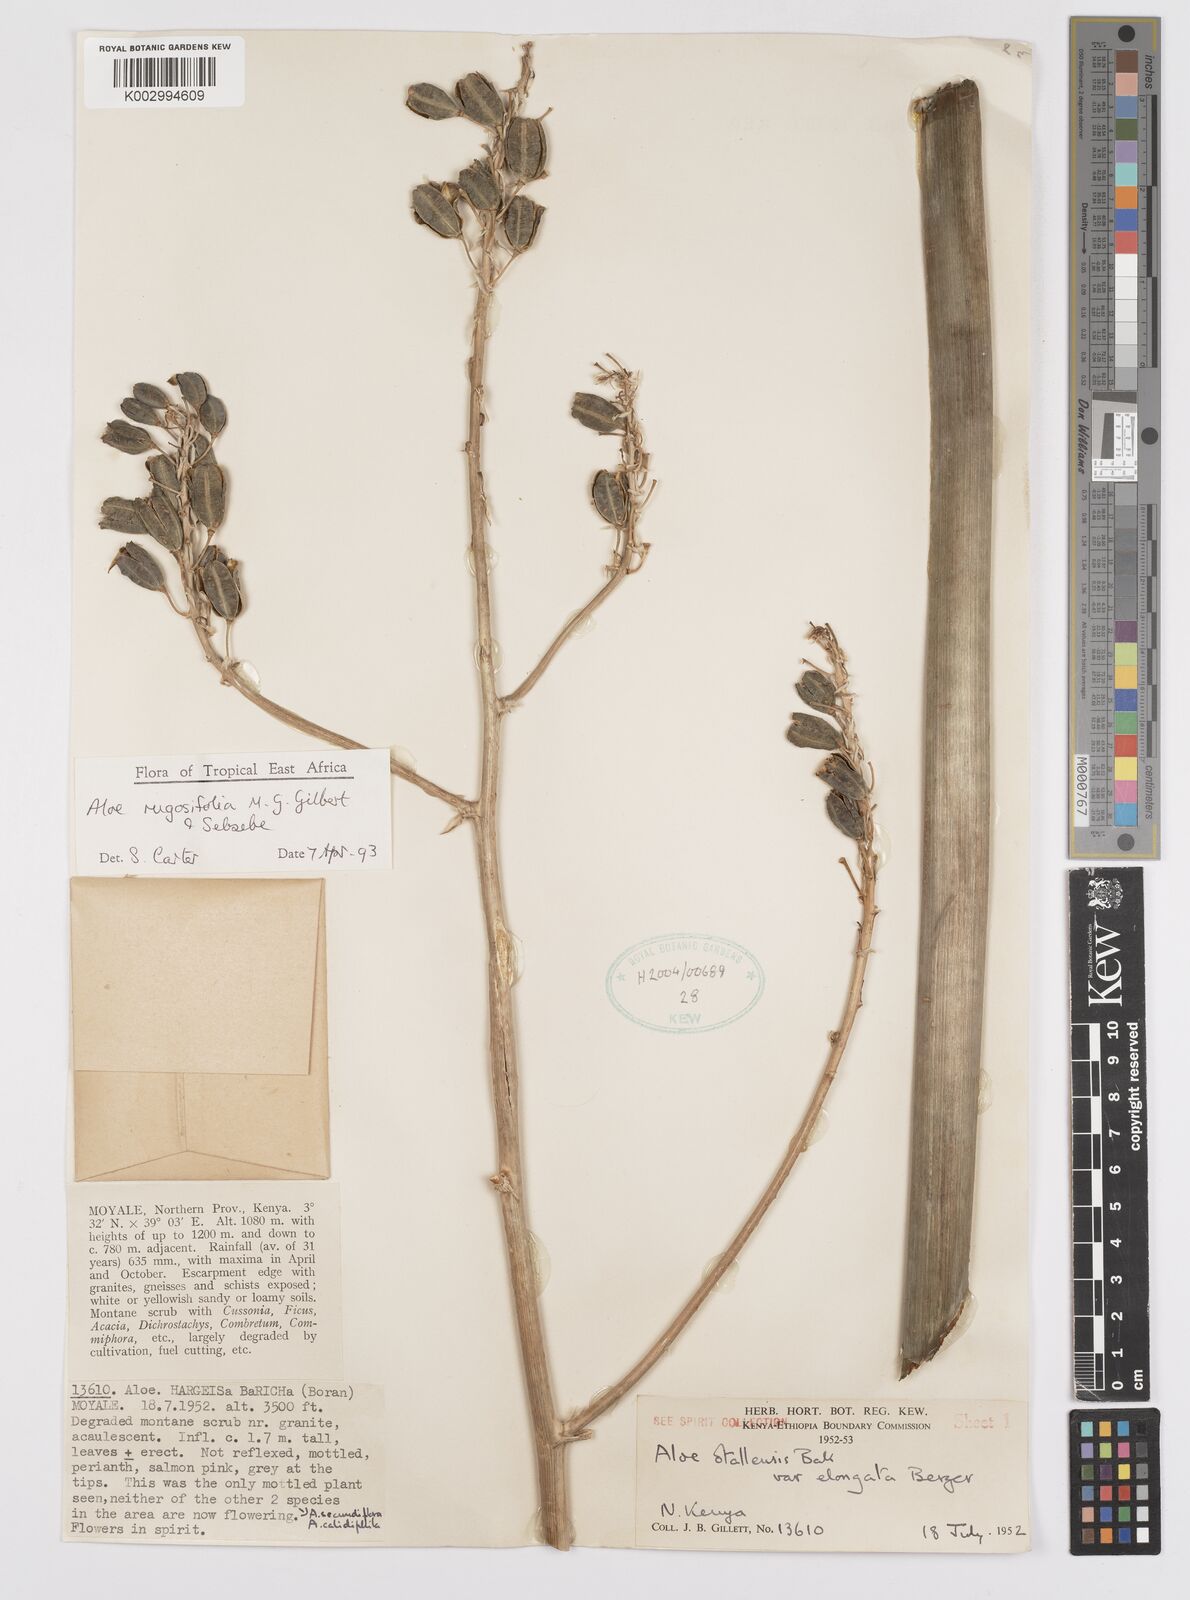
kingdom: Plantae
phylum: Tracheophyta
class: Liliopsida
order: Asparagales
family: Asphodelaceae
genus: Aloe
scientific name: Aloe rugosifolia
